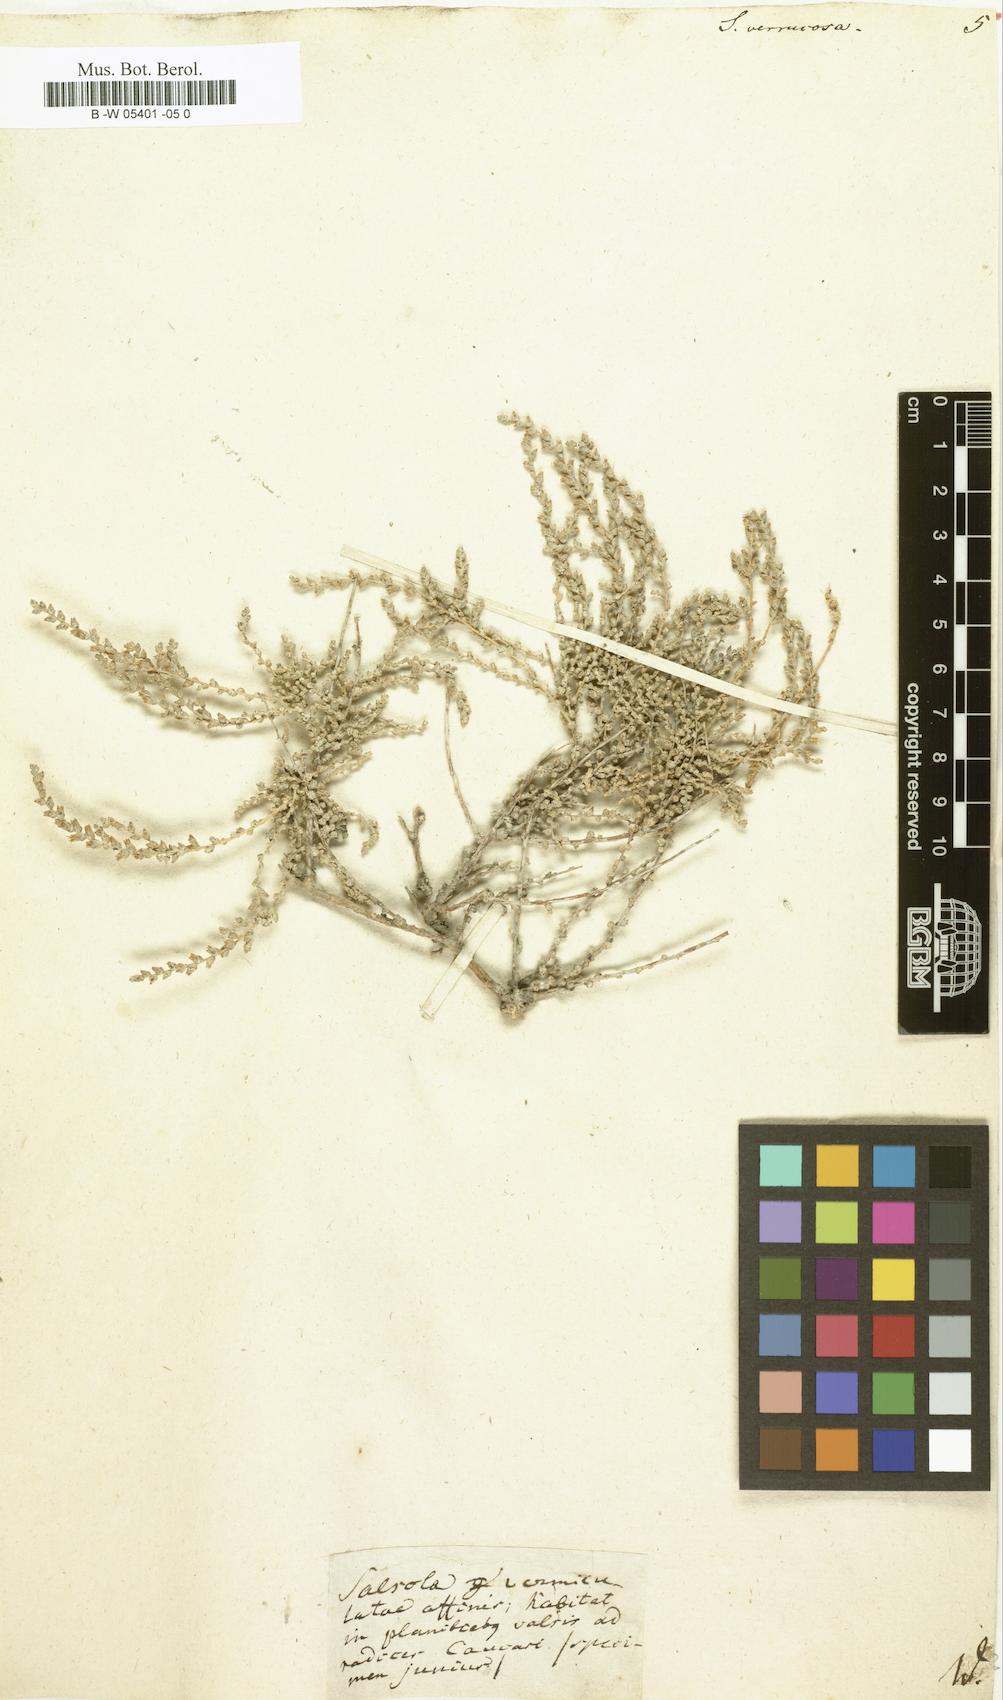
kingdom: Plantae
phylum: Tracheophyta
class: Magnoliopsida
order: Caryophyllales
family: Amaranthaceae
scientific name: Amaranthaceae
